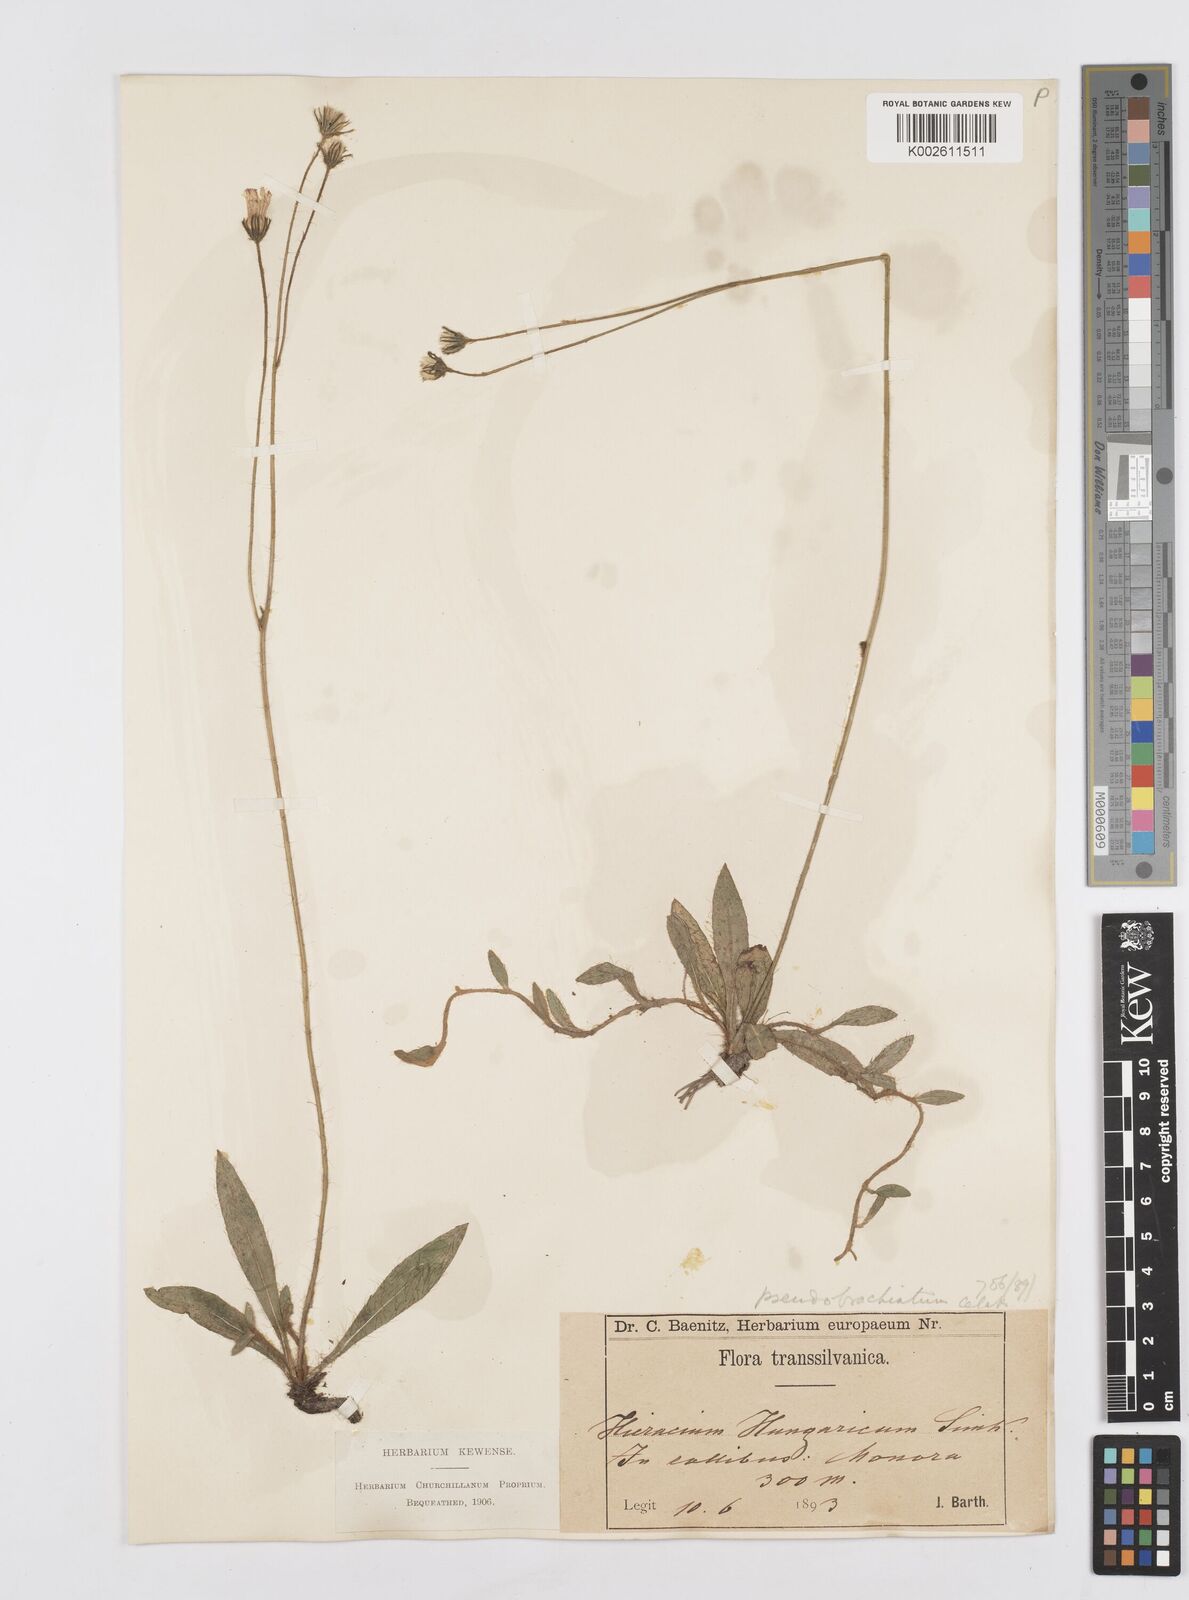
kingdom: Plantae
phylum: Tracheophyta
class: Magnoliopsida
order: Asterales
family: Asteraceae
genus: Pilosella
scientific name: Pilosella acutifolia
